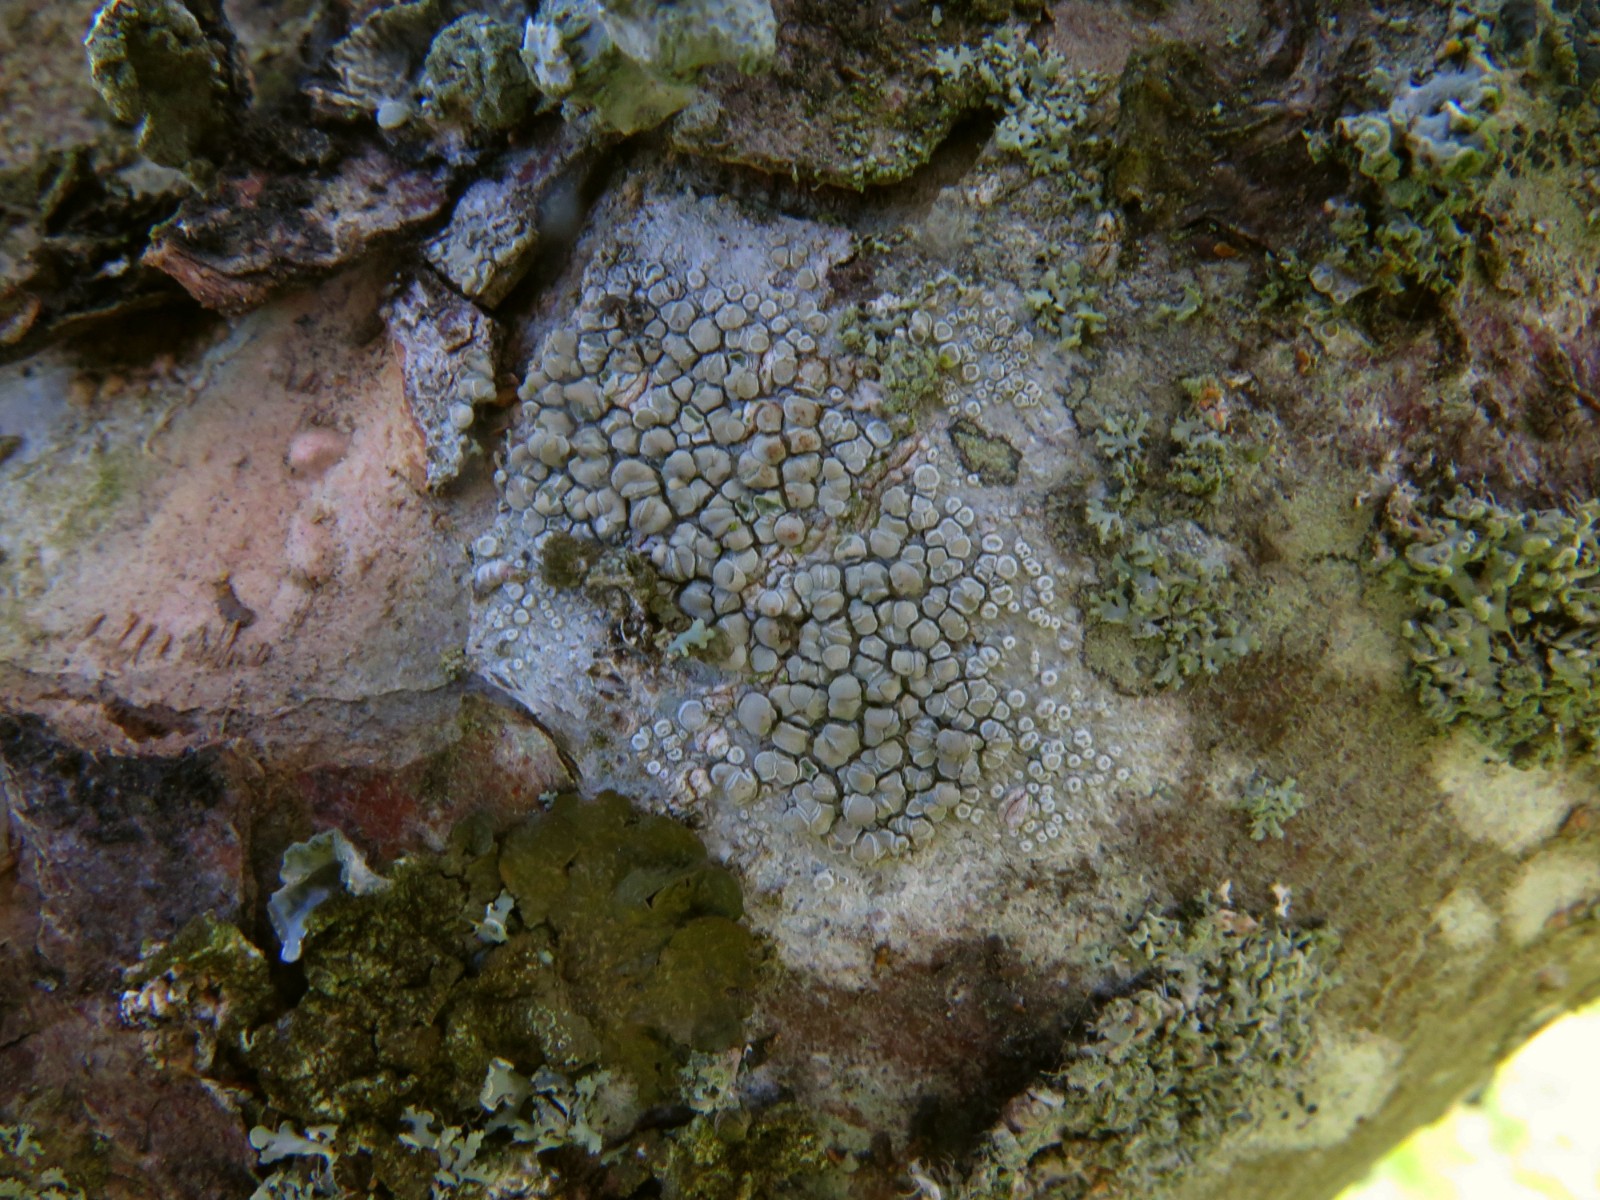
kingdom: Fungi
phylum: Ascomycota
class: Lecanoromycetes
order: Lecanorales
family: Lecanoraceae
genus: Glaucomaria
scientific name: Glaucomaria carpinea
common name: hviddugget kantskivelav
